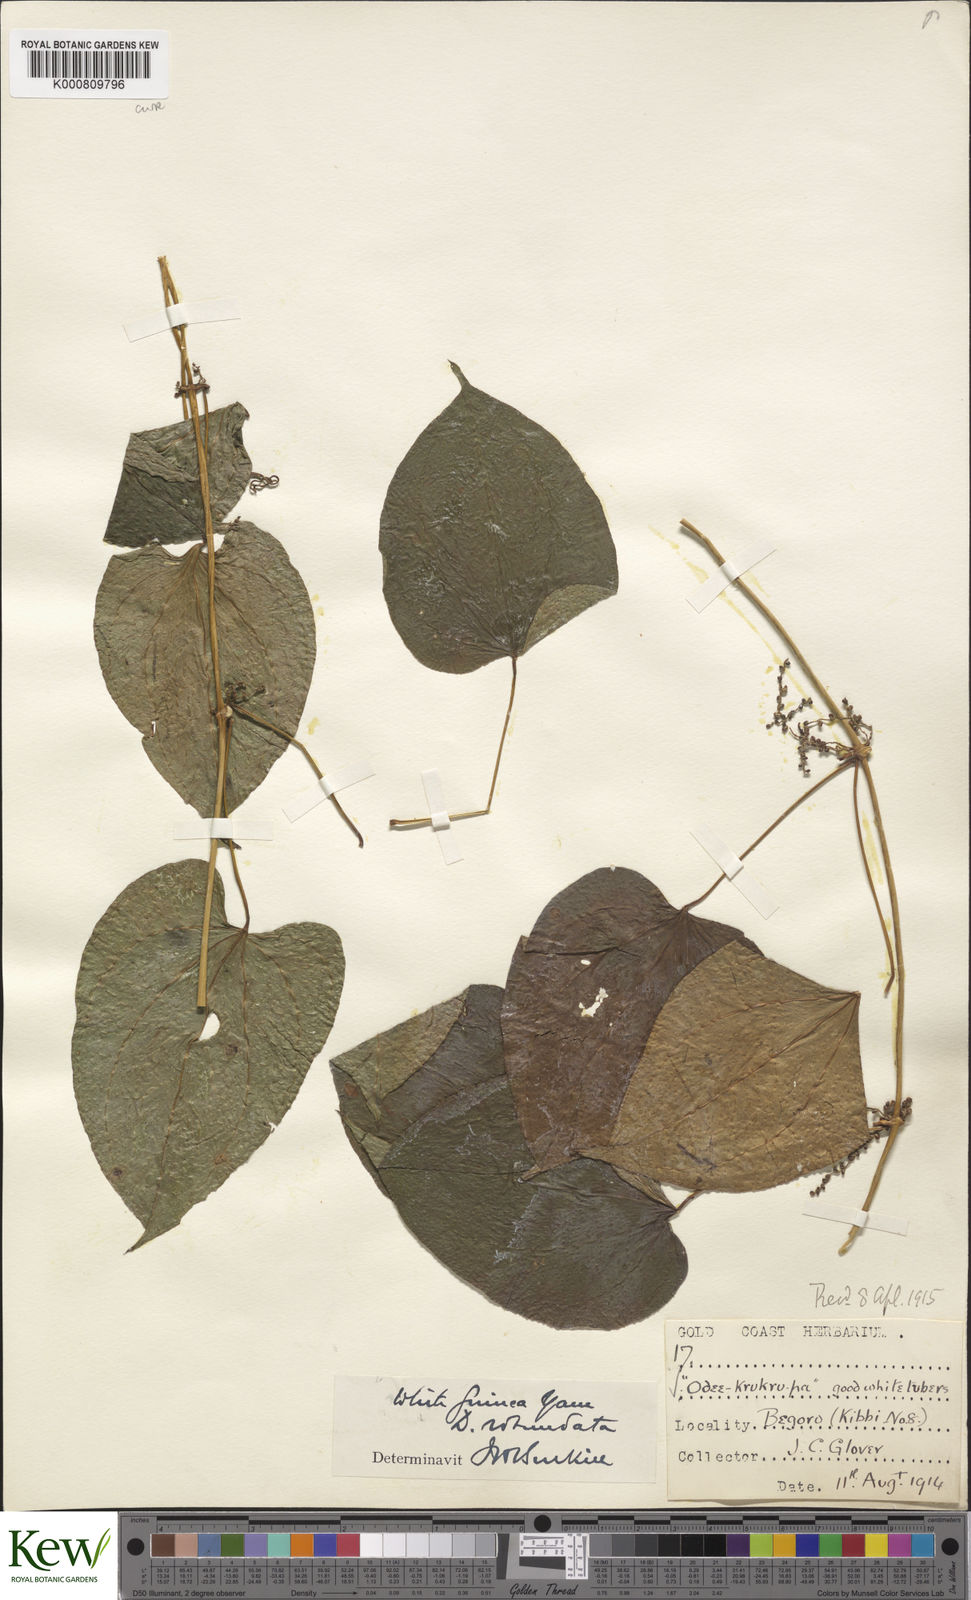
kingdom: Plantae
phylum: Tracheophyta
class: Liliopsida
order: Dioscoreales
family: Dioscoreaceae
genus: Dioscorea
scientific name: Dioscorea cayenensis
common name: Attoto yam
